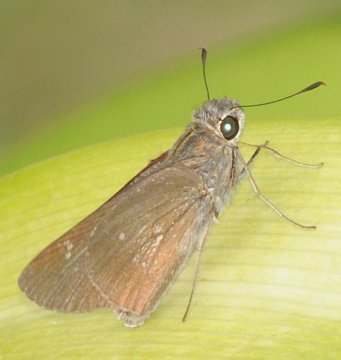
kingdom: Animalia
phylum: Arthropoda
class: Insecta
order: Lepidoptera
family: Hesperiidae
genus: Borbo
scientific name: Borbo
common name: Swifts
